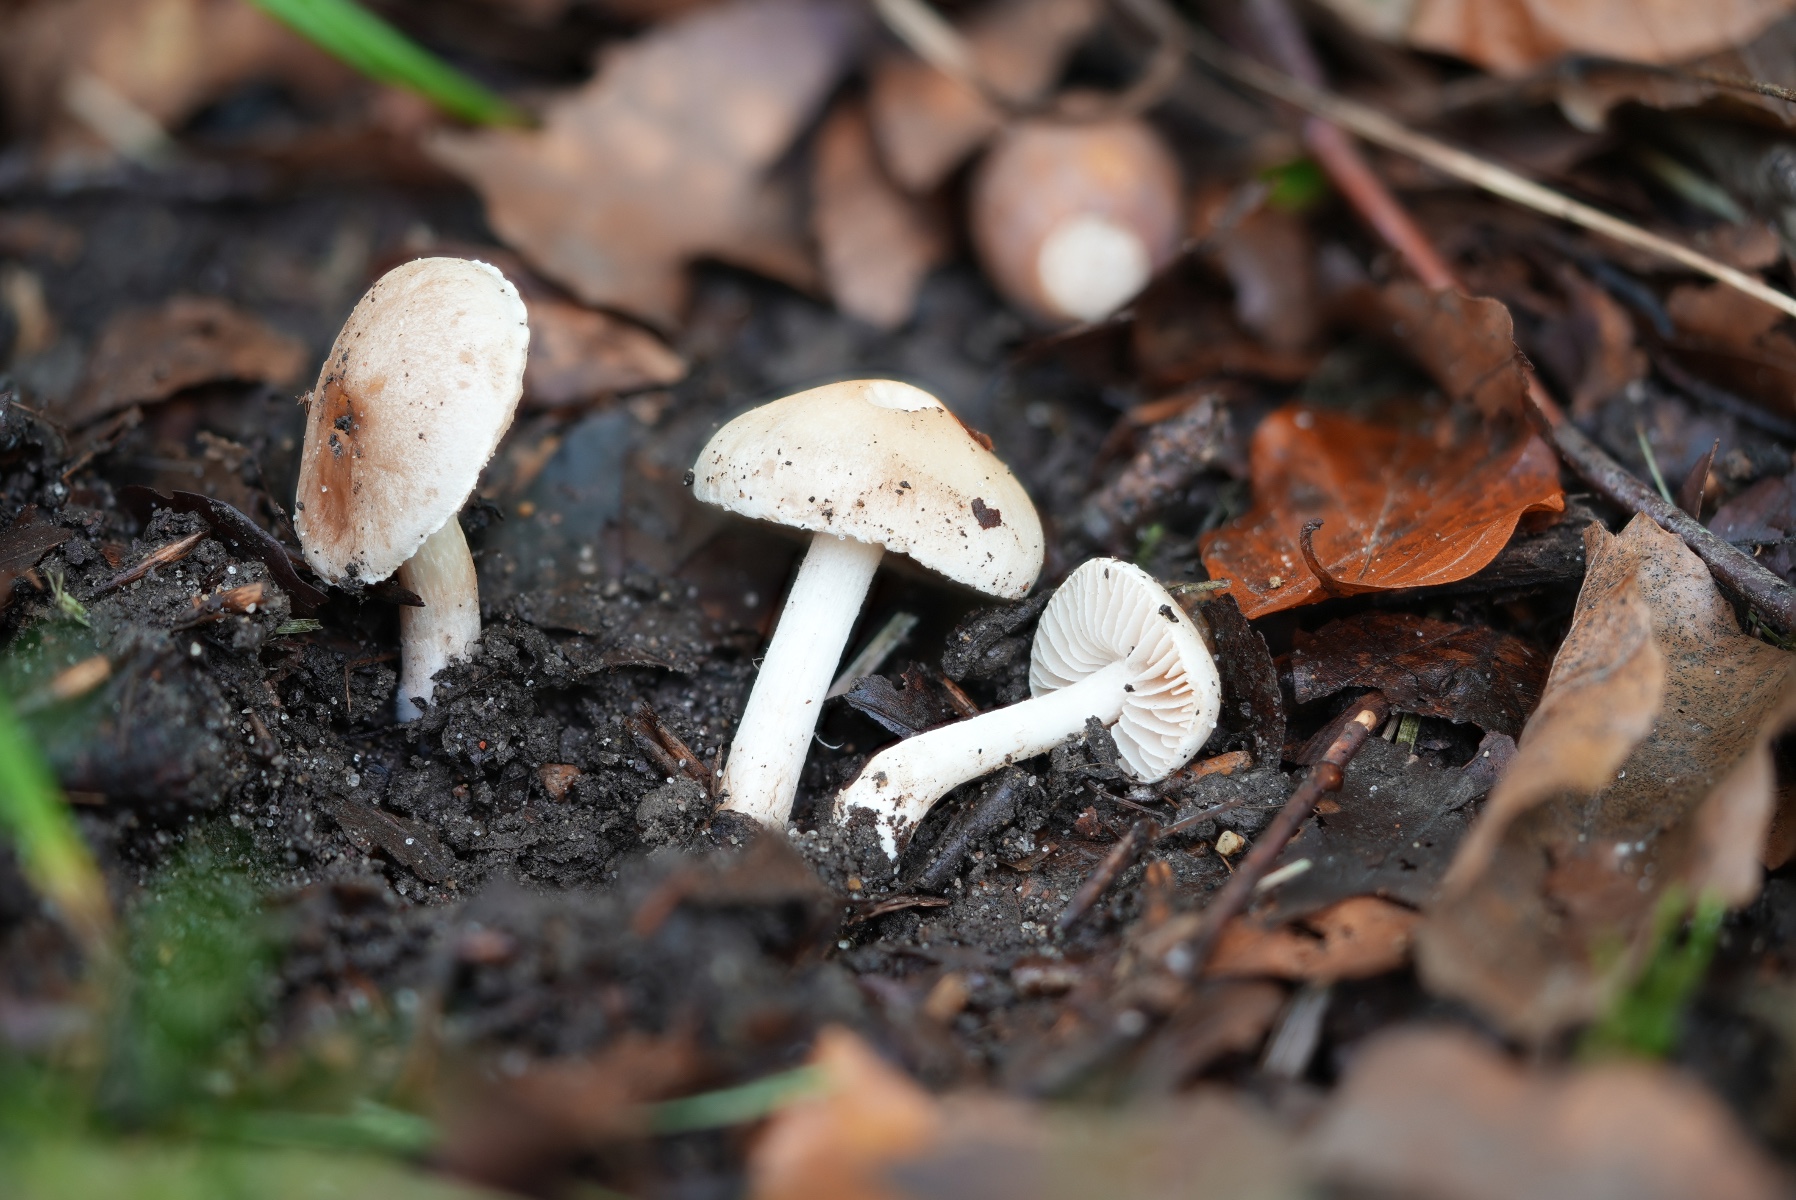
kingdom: Fungi
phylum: Basidiomycota
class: Agaricomycetes
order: Agaricales
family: Hymenogastraceae
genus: Hebeloma
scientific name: Hebeloma fusisporum
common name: kandis-tåreblad
